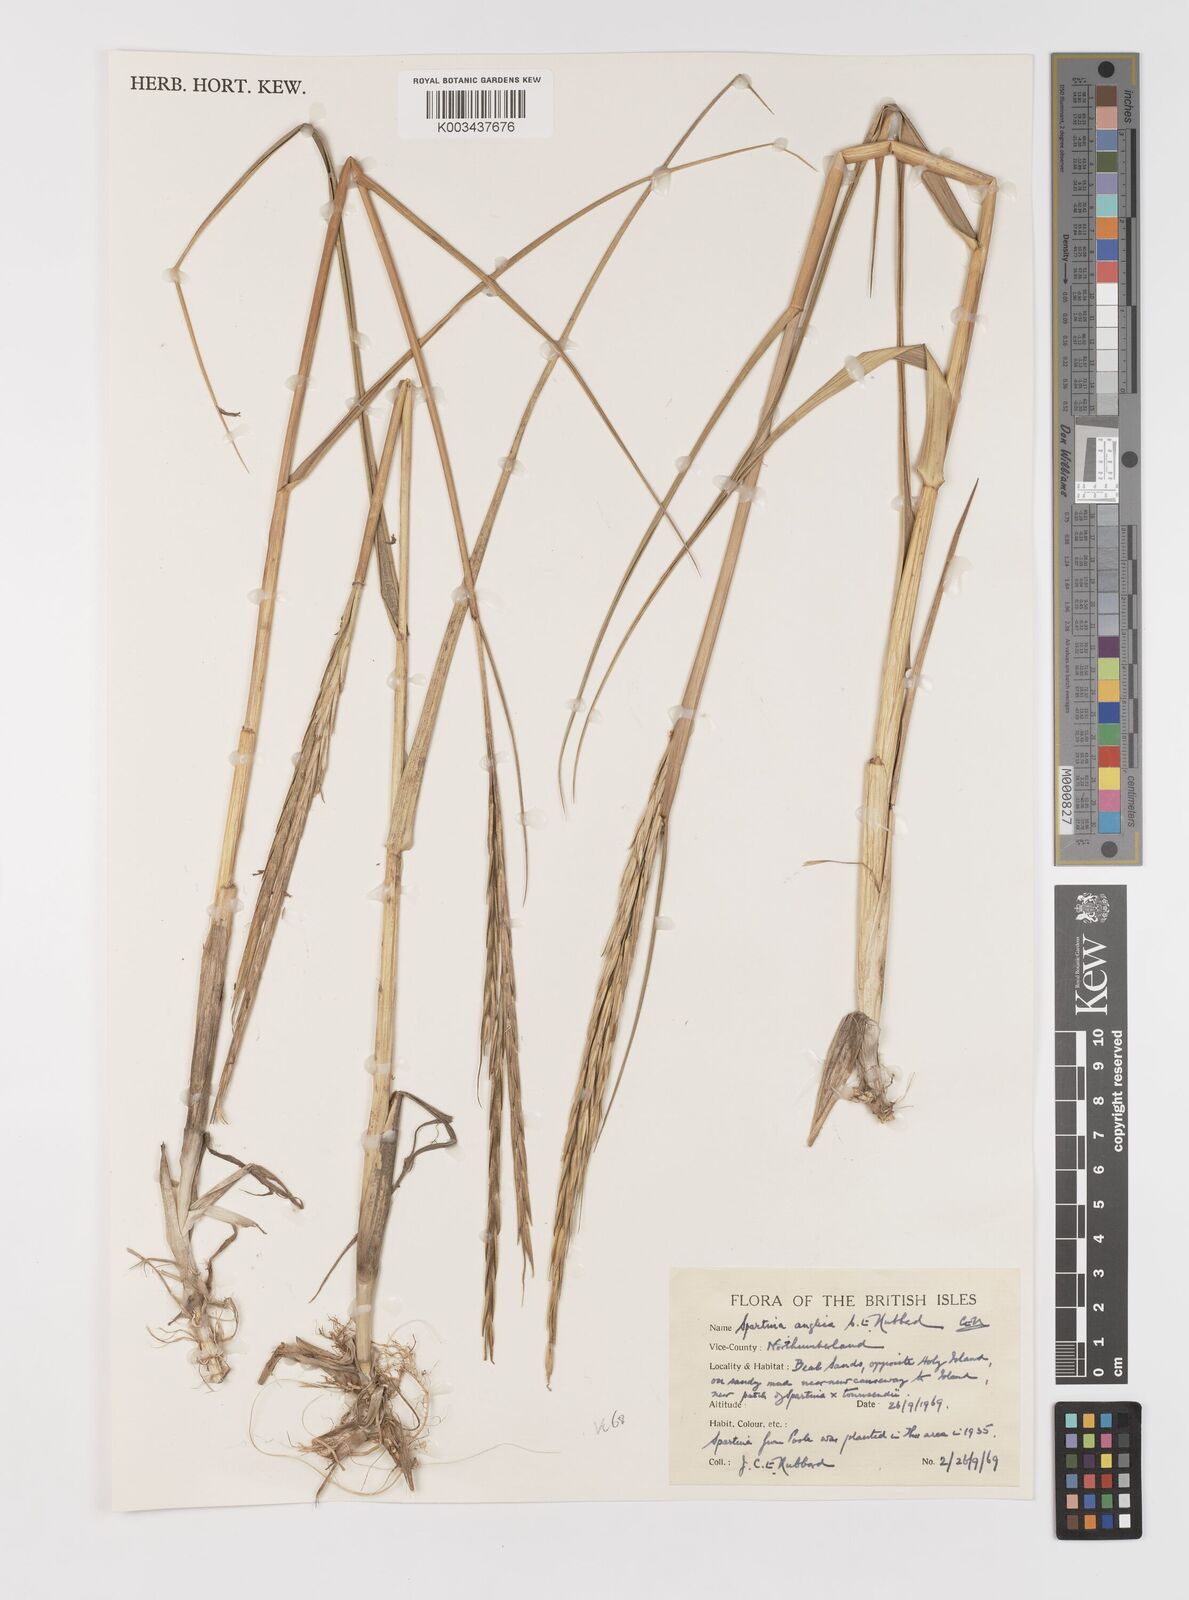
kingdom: Plantae
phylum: Tracheophyta
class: Liliopsida
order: Poales
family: Poaceae
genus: Sporobolus
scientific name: Sporobolus anglicus
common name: English cordgrass
